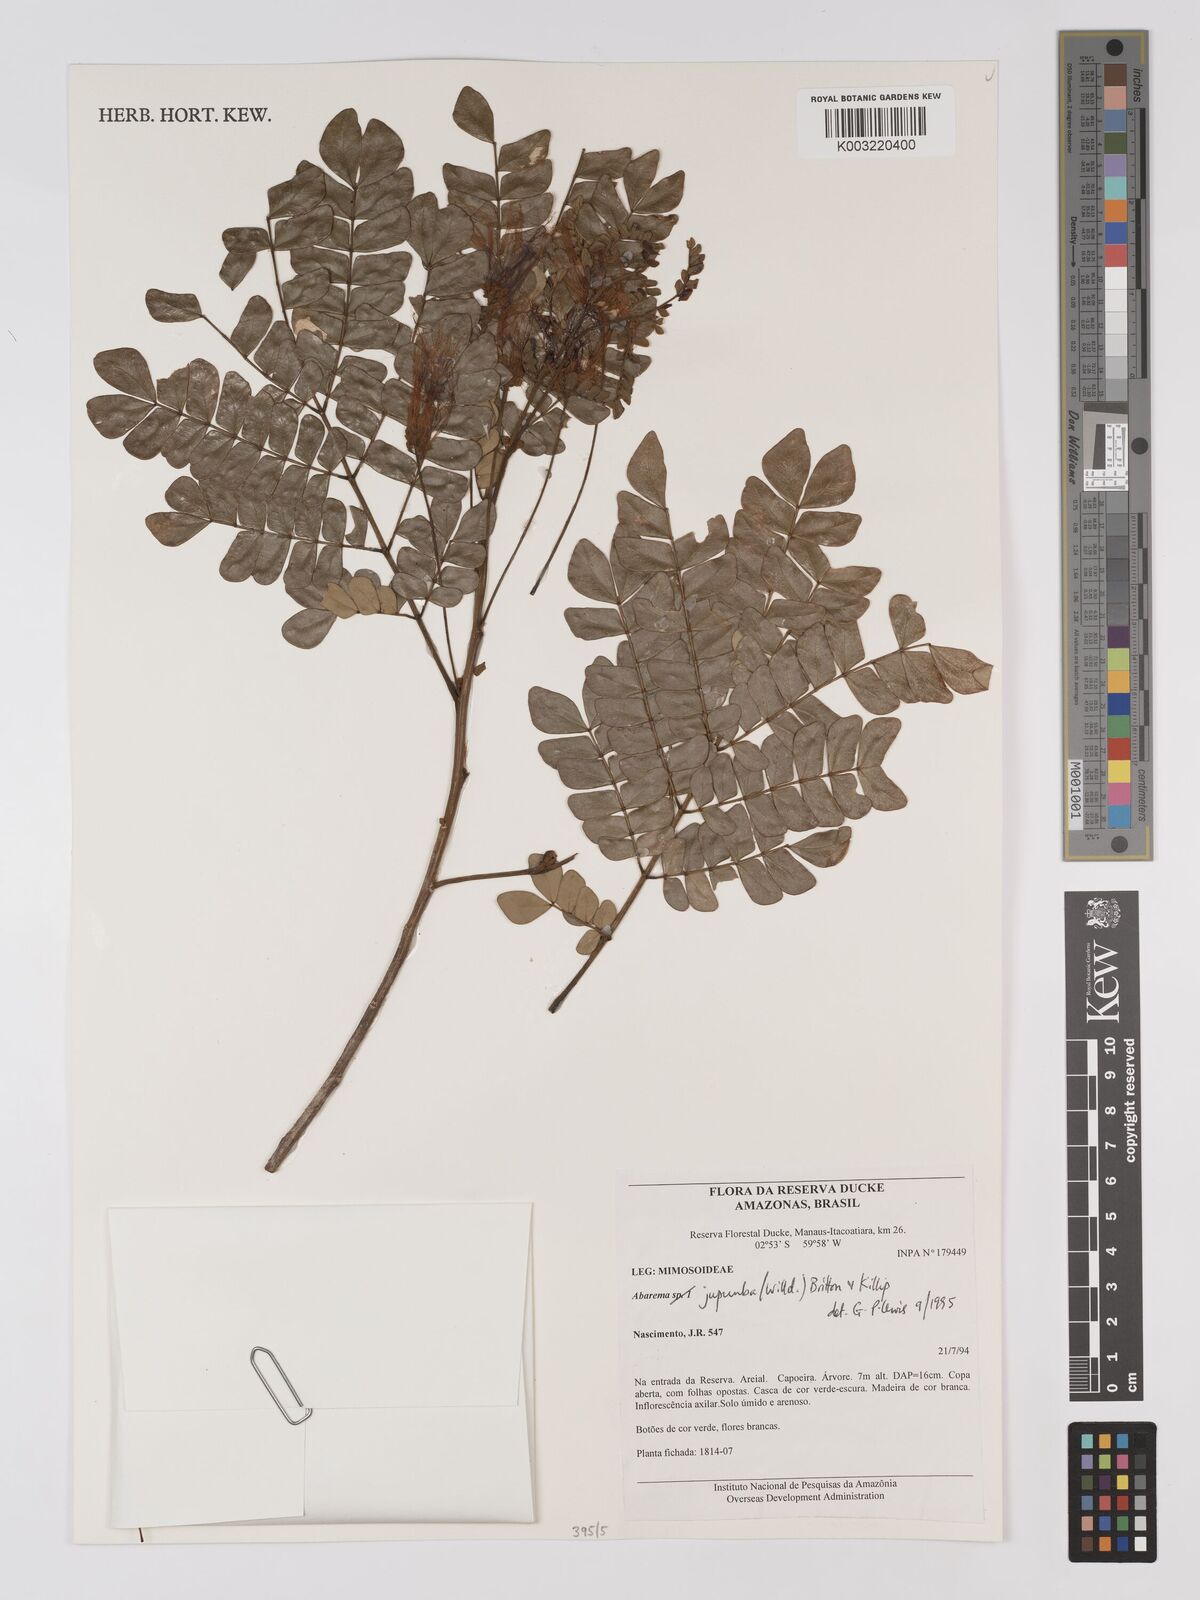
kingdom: Plantae
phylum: Tracheophyta
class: Magnoliopsida
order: Fabales
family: Fabaceae
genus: Jupunba
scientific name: Jupunba trapezifolia
